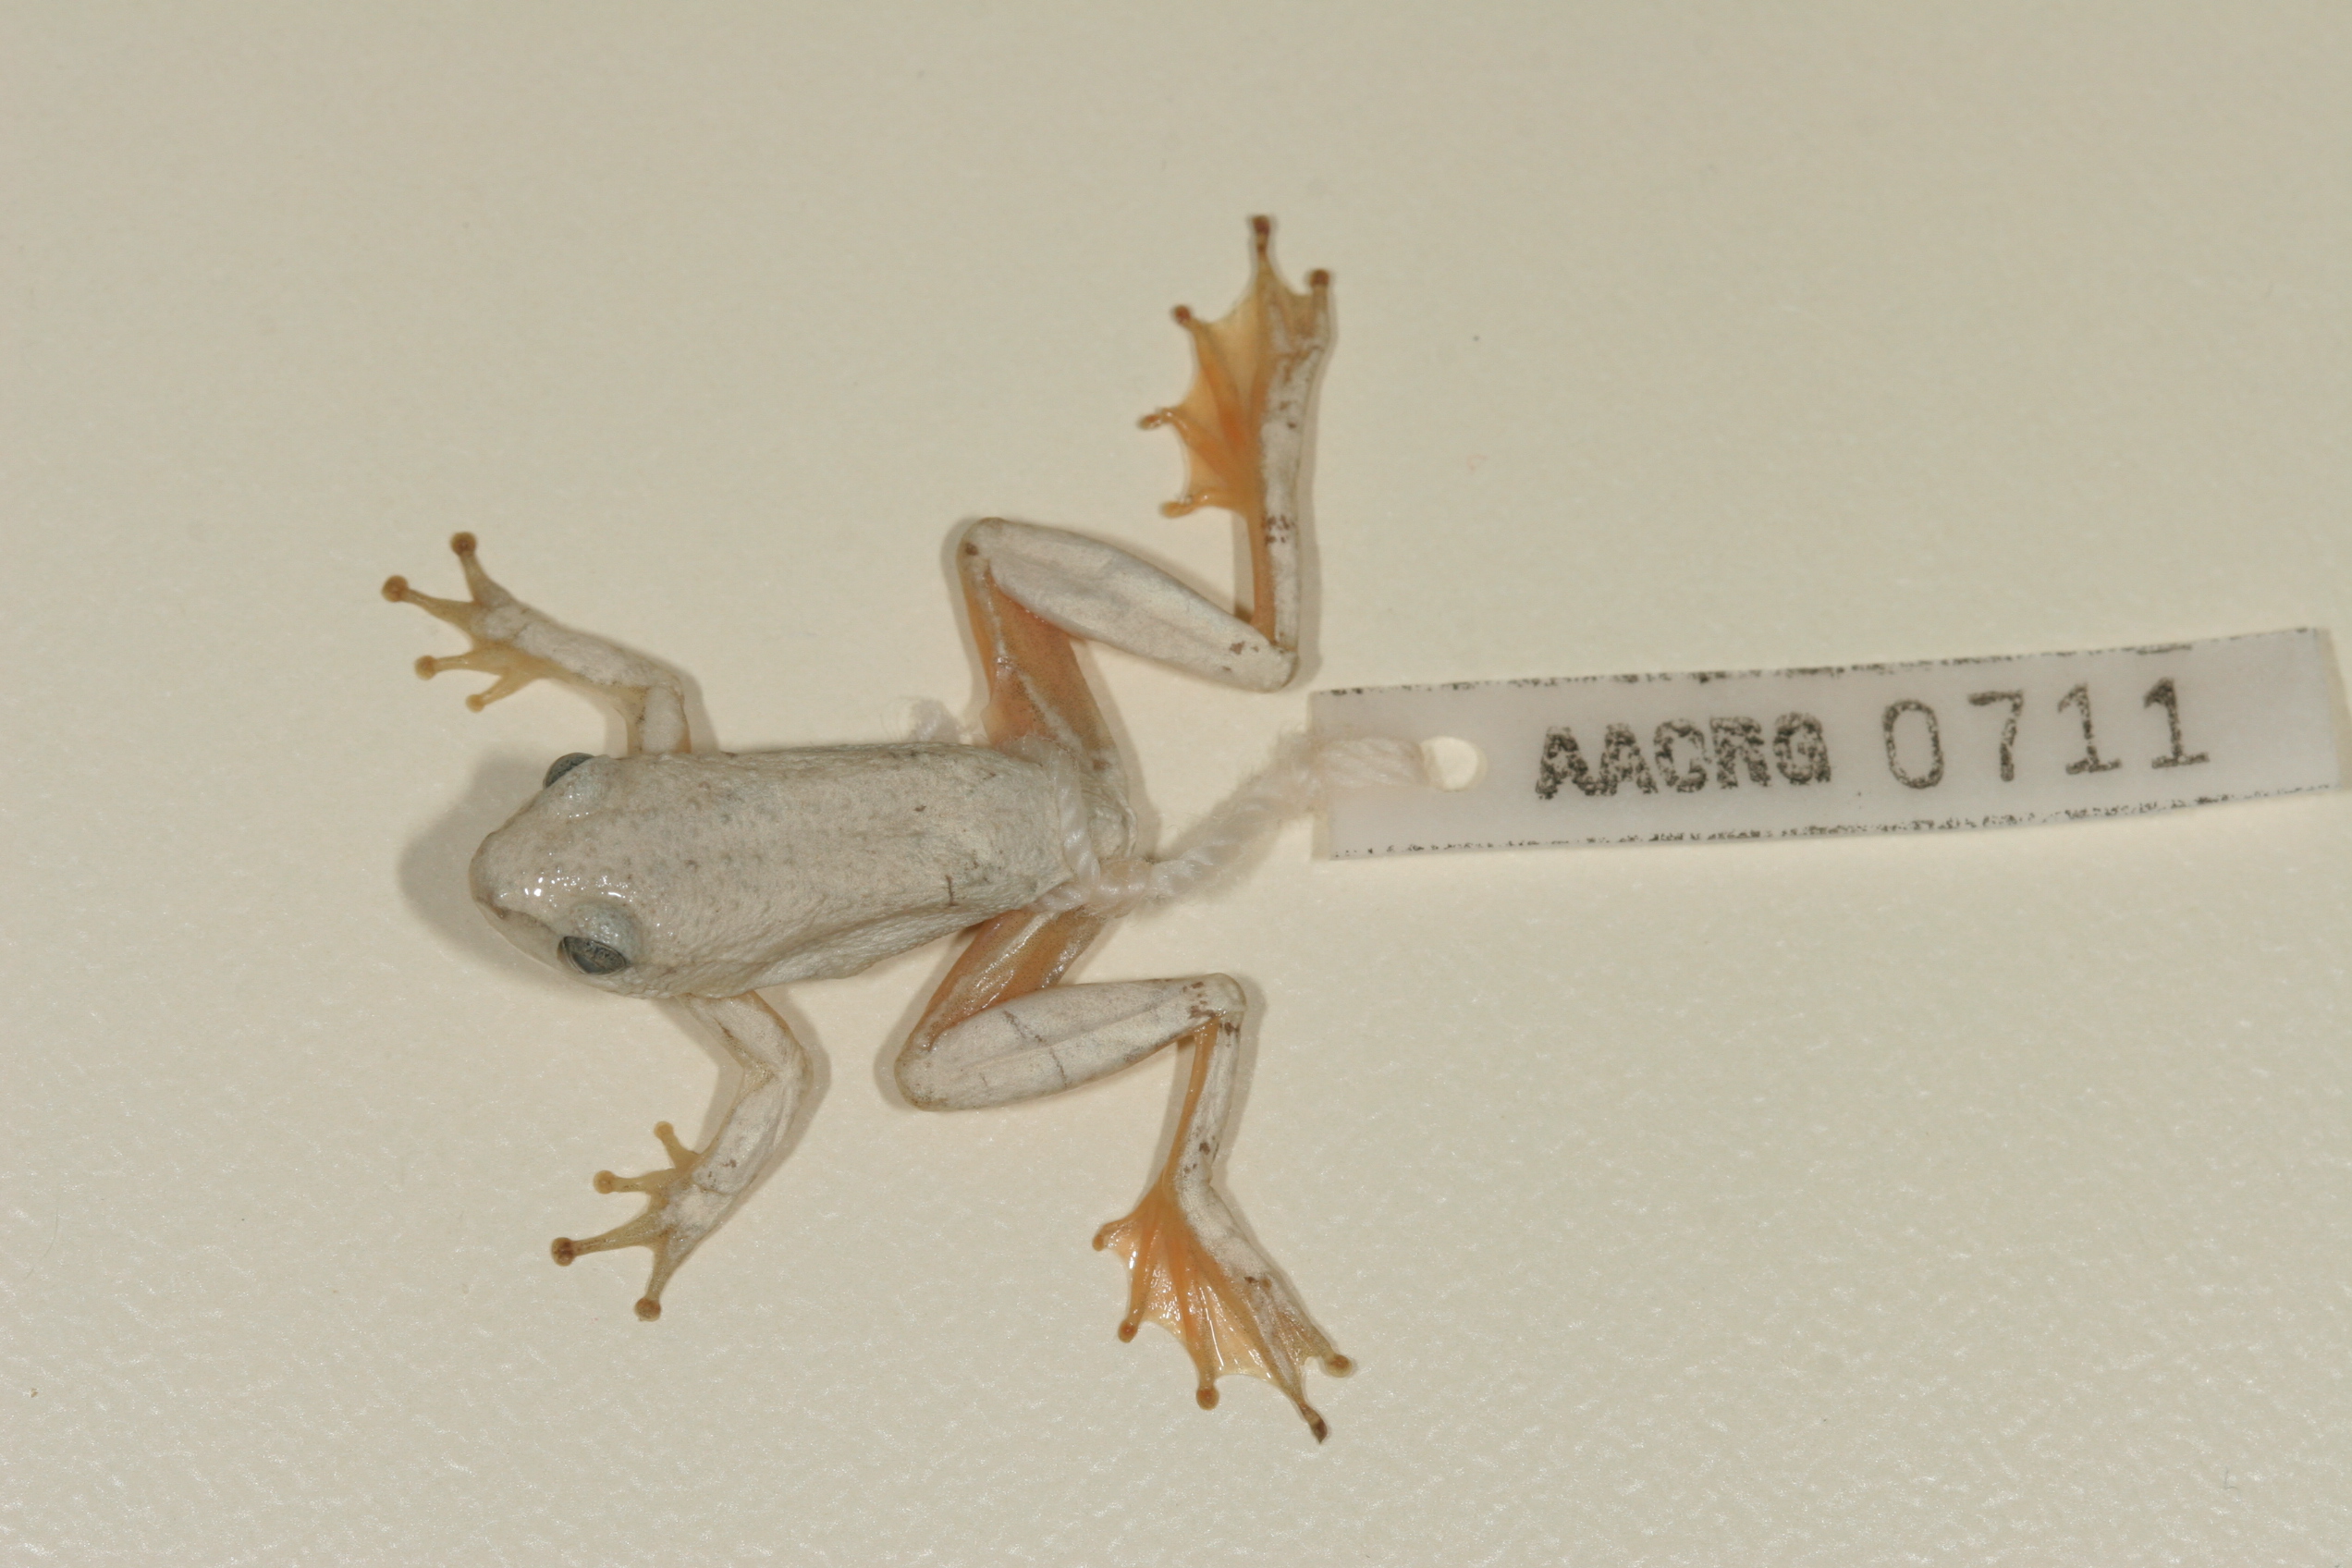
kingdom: Animalia
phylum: Chordata
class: Amphibia
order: Anura
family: Hyperoliidae
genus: Hyperolius
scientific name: Hyperolius parallelus
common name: Angolan reed frog
